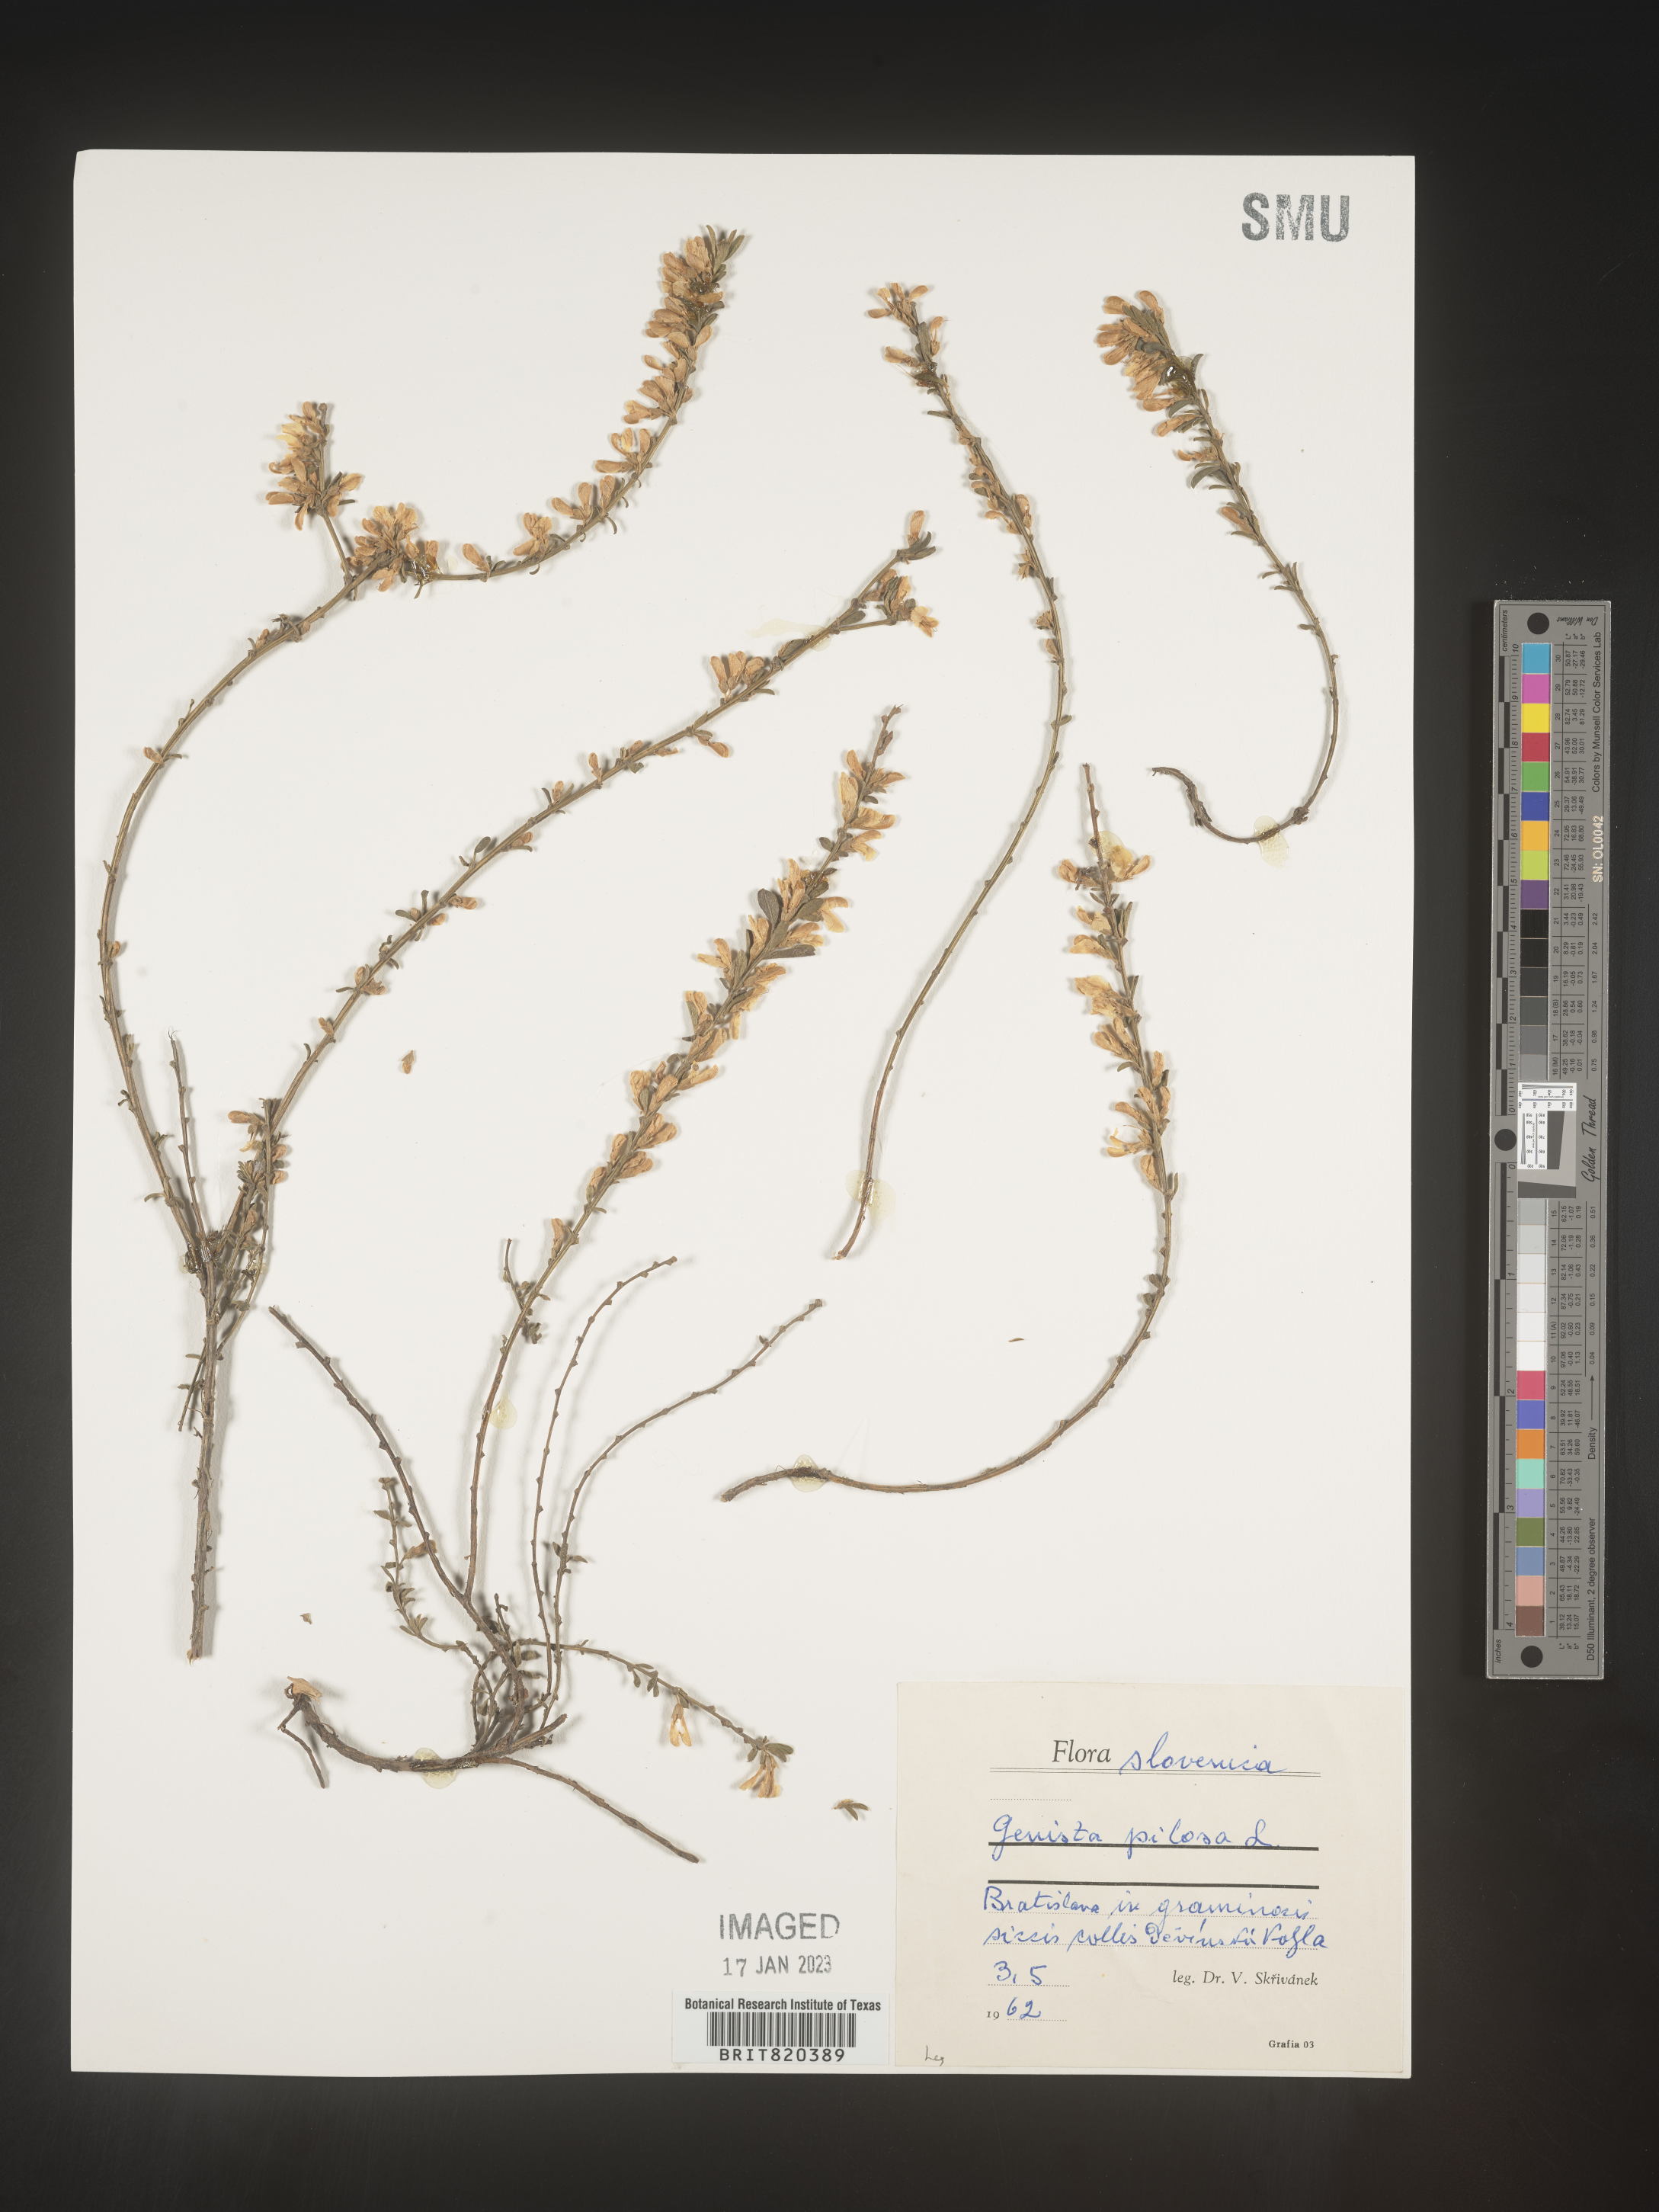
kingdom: Plantae
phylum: Tracheophyta
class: Magnoliopsida
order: Fabales
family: Fabaceae
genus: Genista
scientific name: Genista
